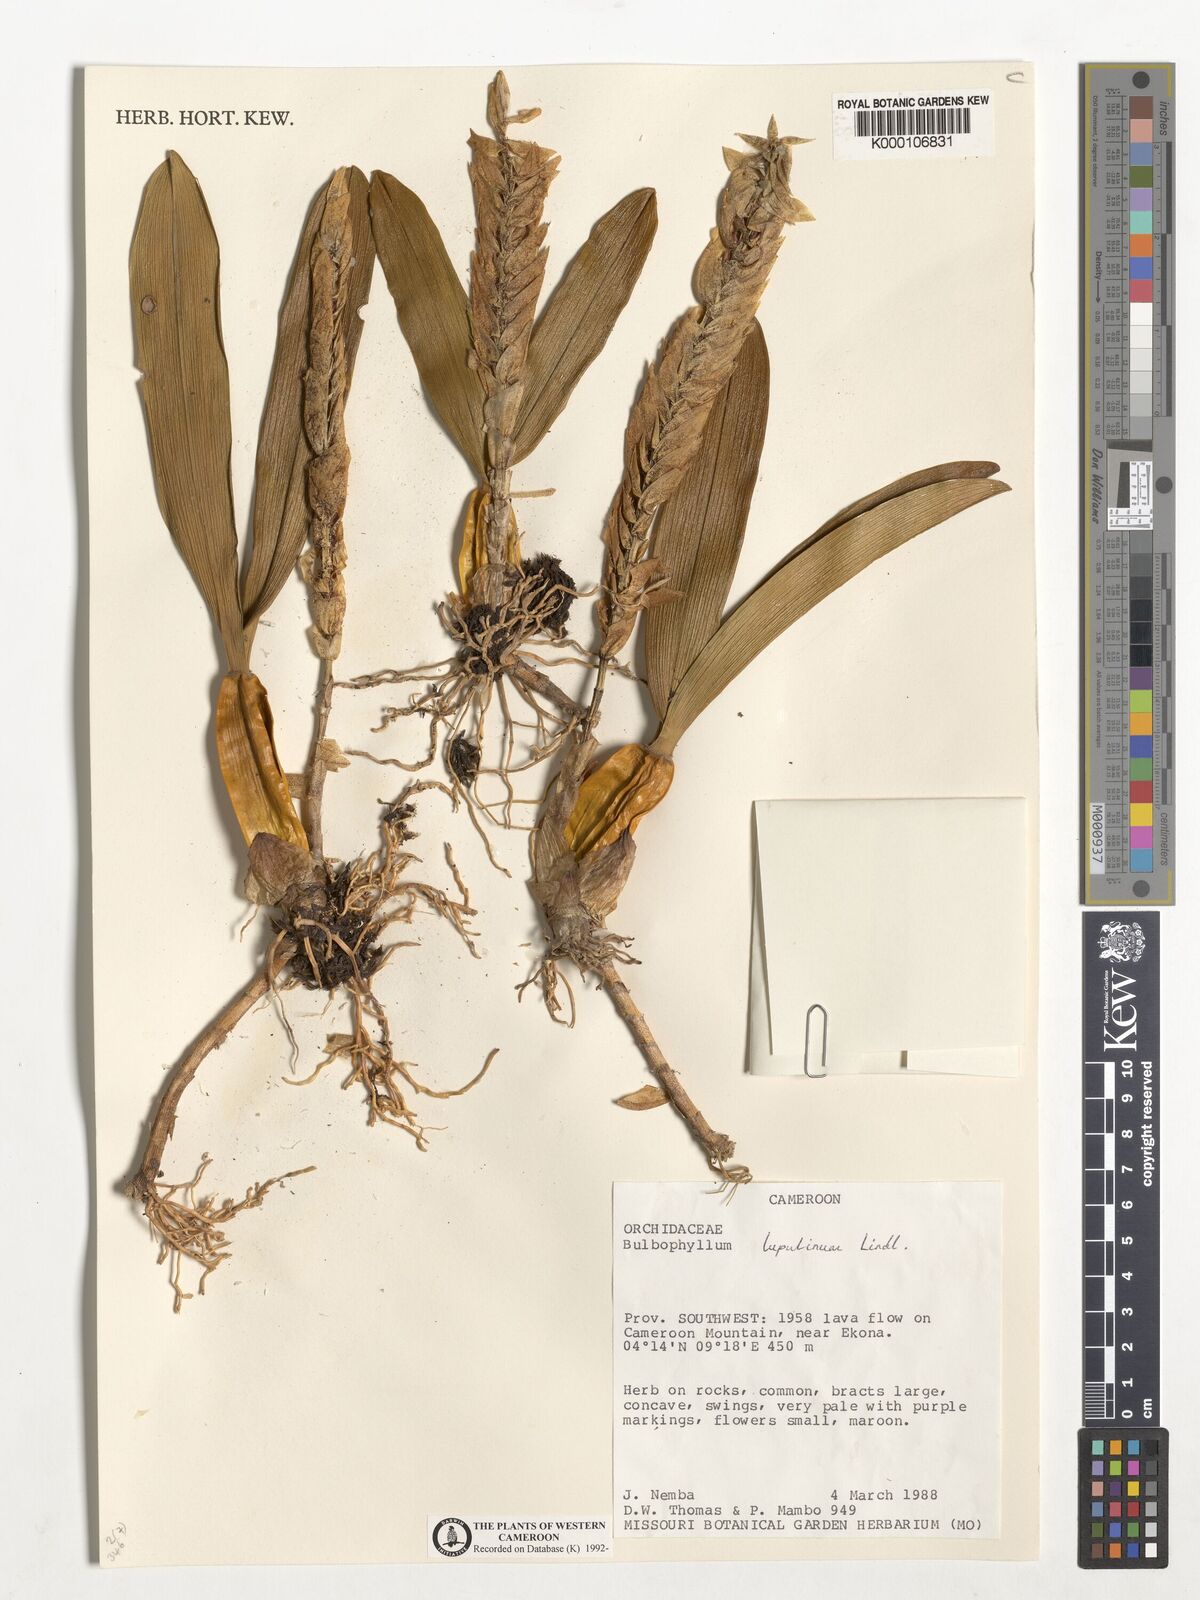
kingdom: Plantae
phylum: Tracheophyta
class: Liliopsida
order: Asparagales
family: Orchidaceae
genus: Bulbophyllum
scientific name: Bulbophyllum lupulinum
